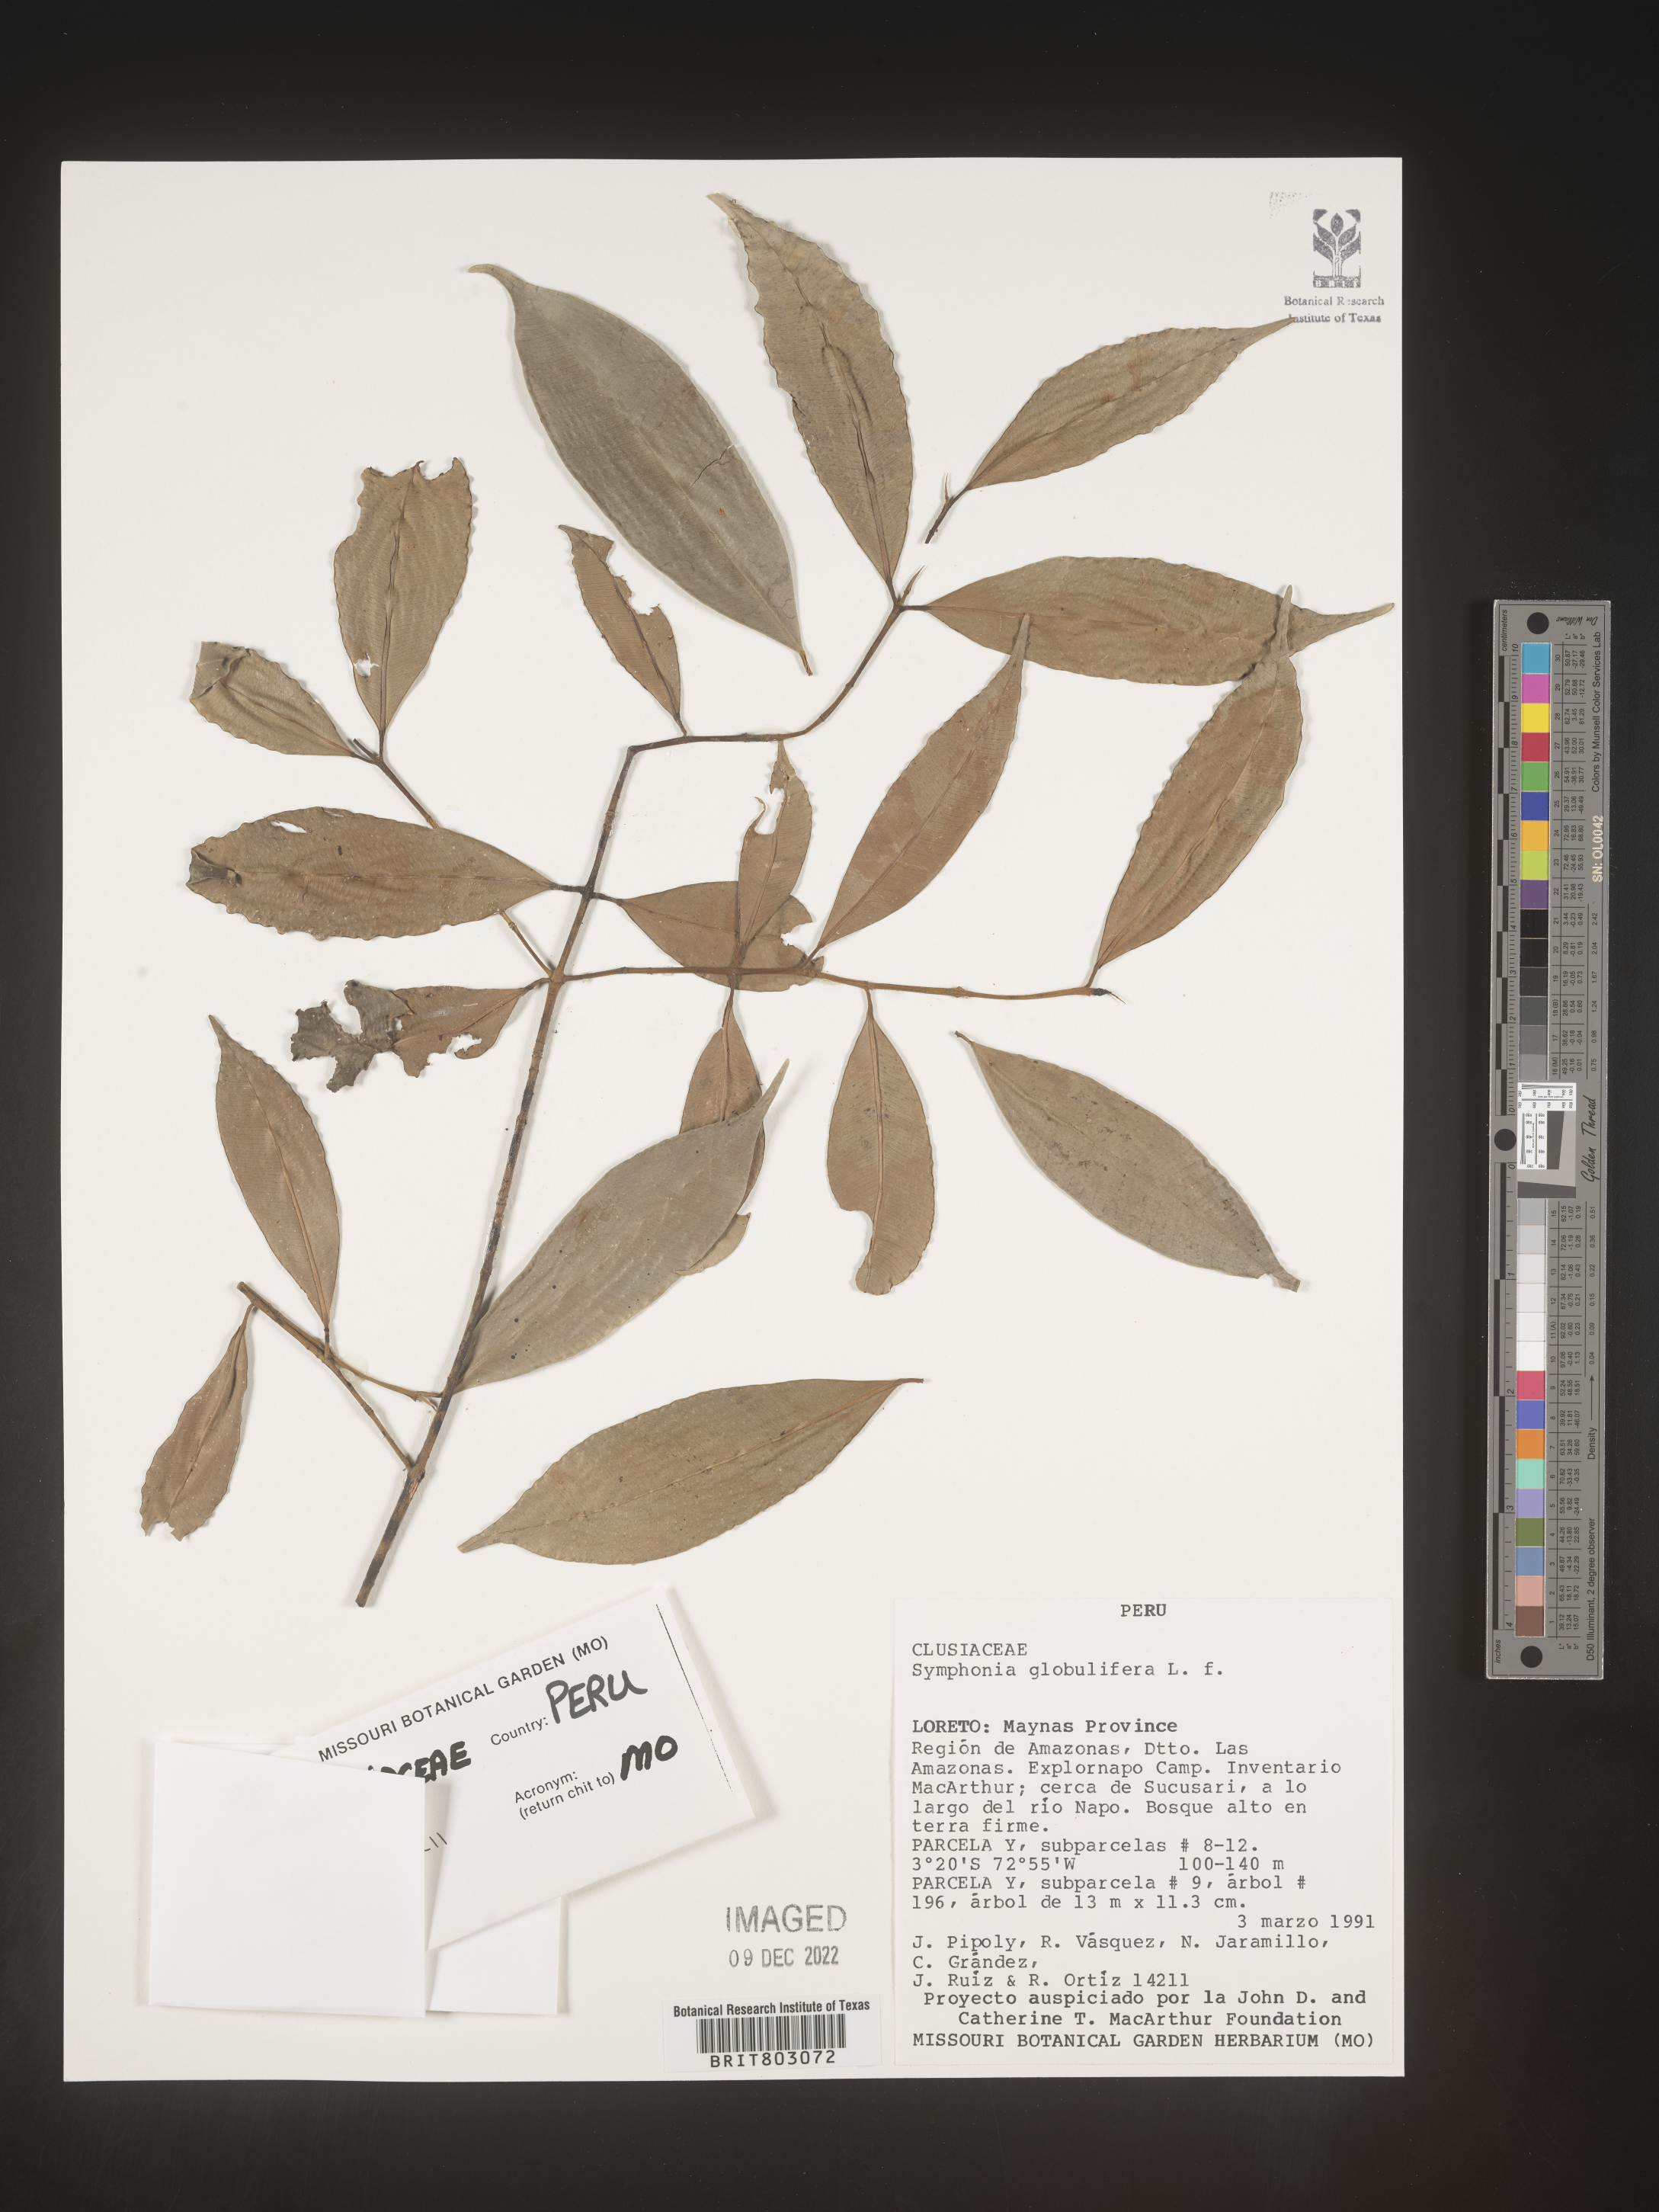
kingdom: Plantae
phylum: Tracheophyta
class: Magnoliopsida
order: Malpighiales
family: Clusiaceae
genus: Symphonia
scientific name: Symphonia
